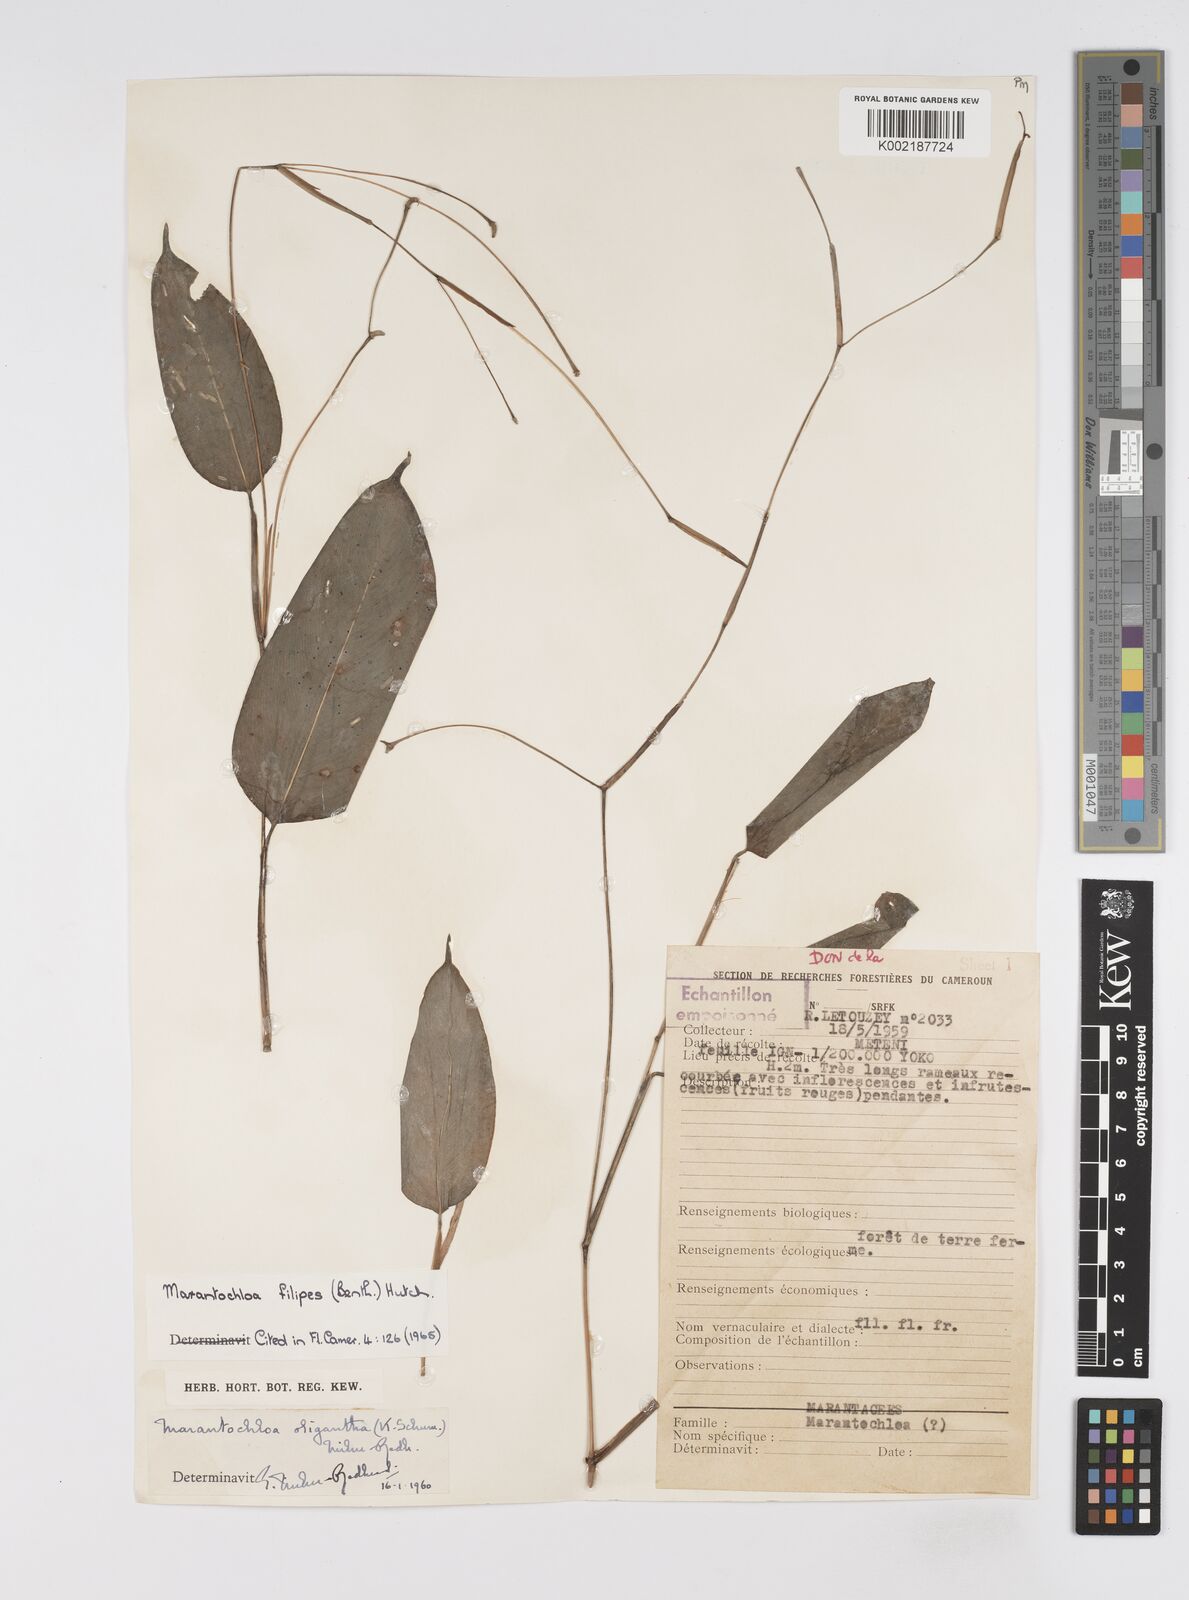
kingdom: Plantae
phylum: Tracheophyta
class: Liliopsida
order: Zingiberales
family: Marantaceae
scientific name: Marantaceae
